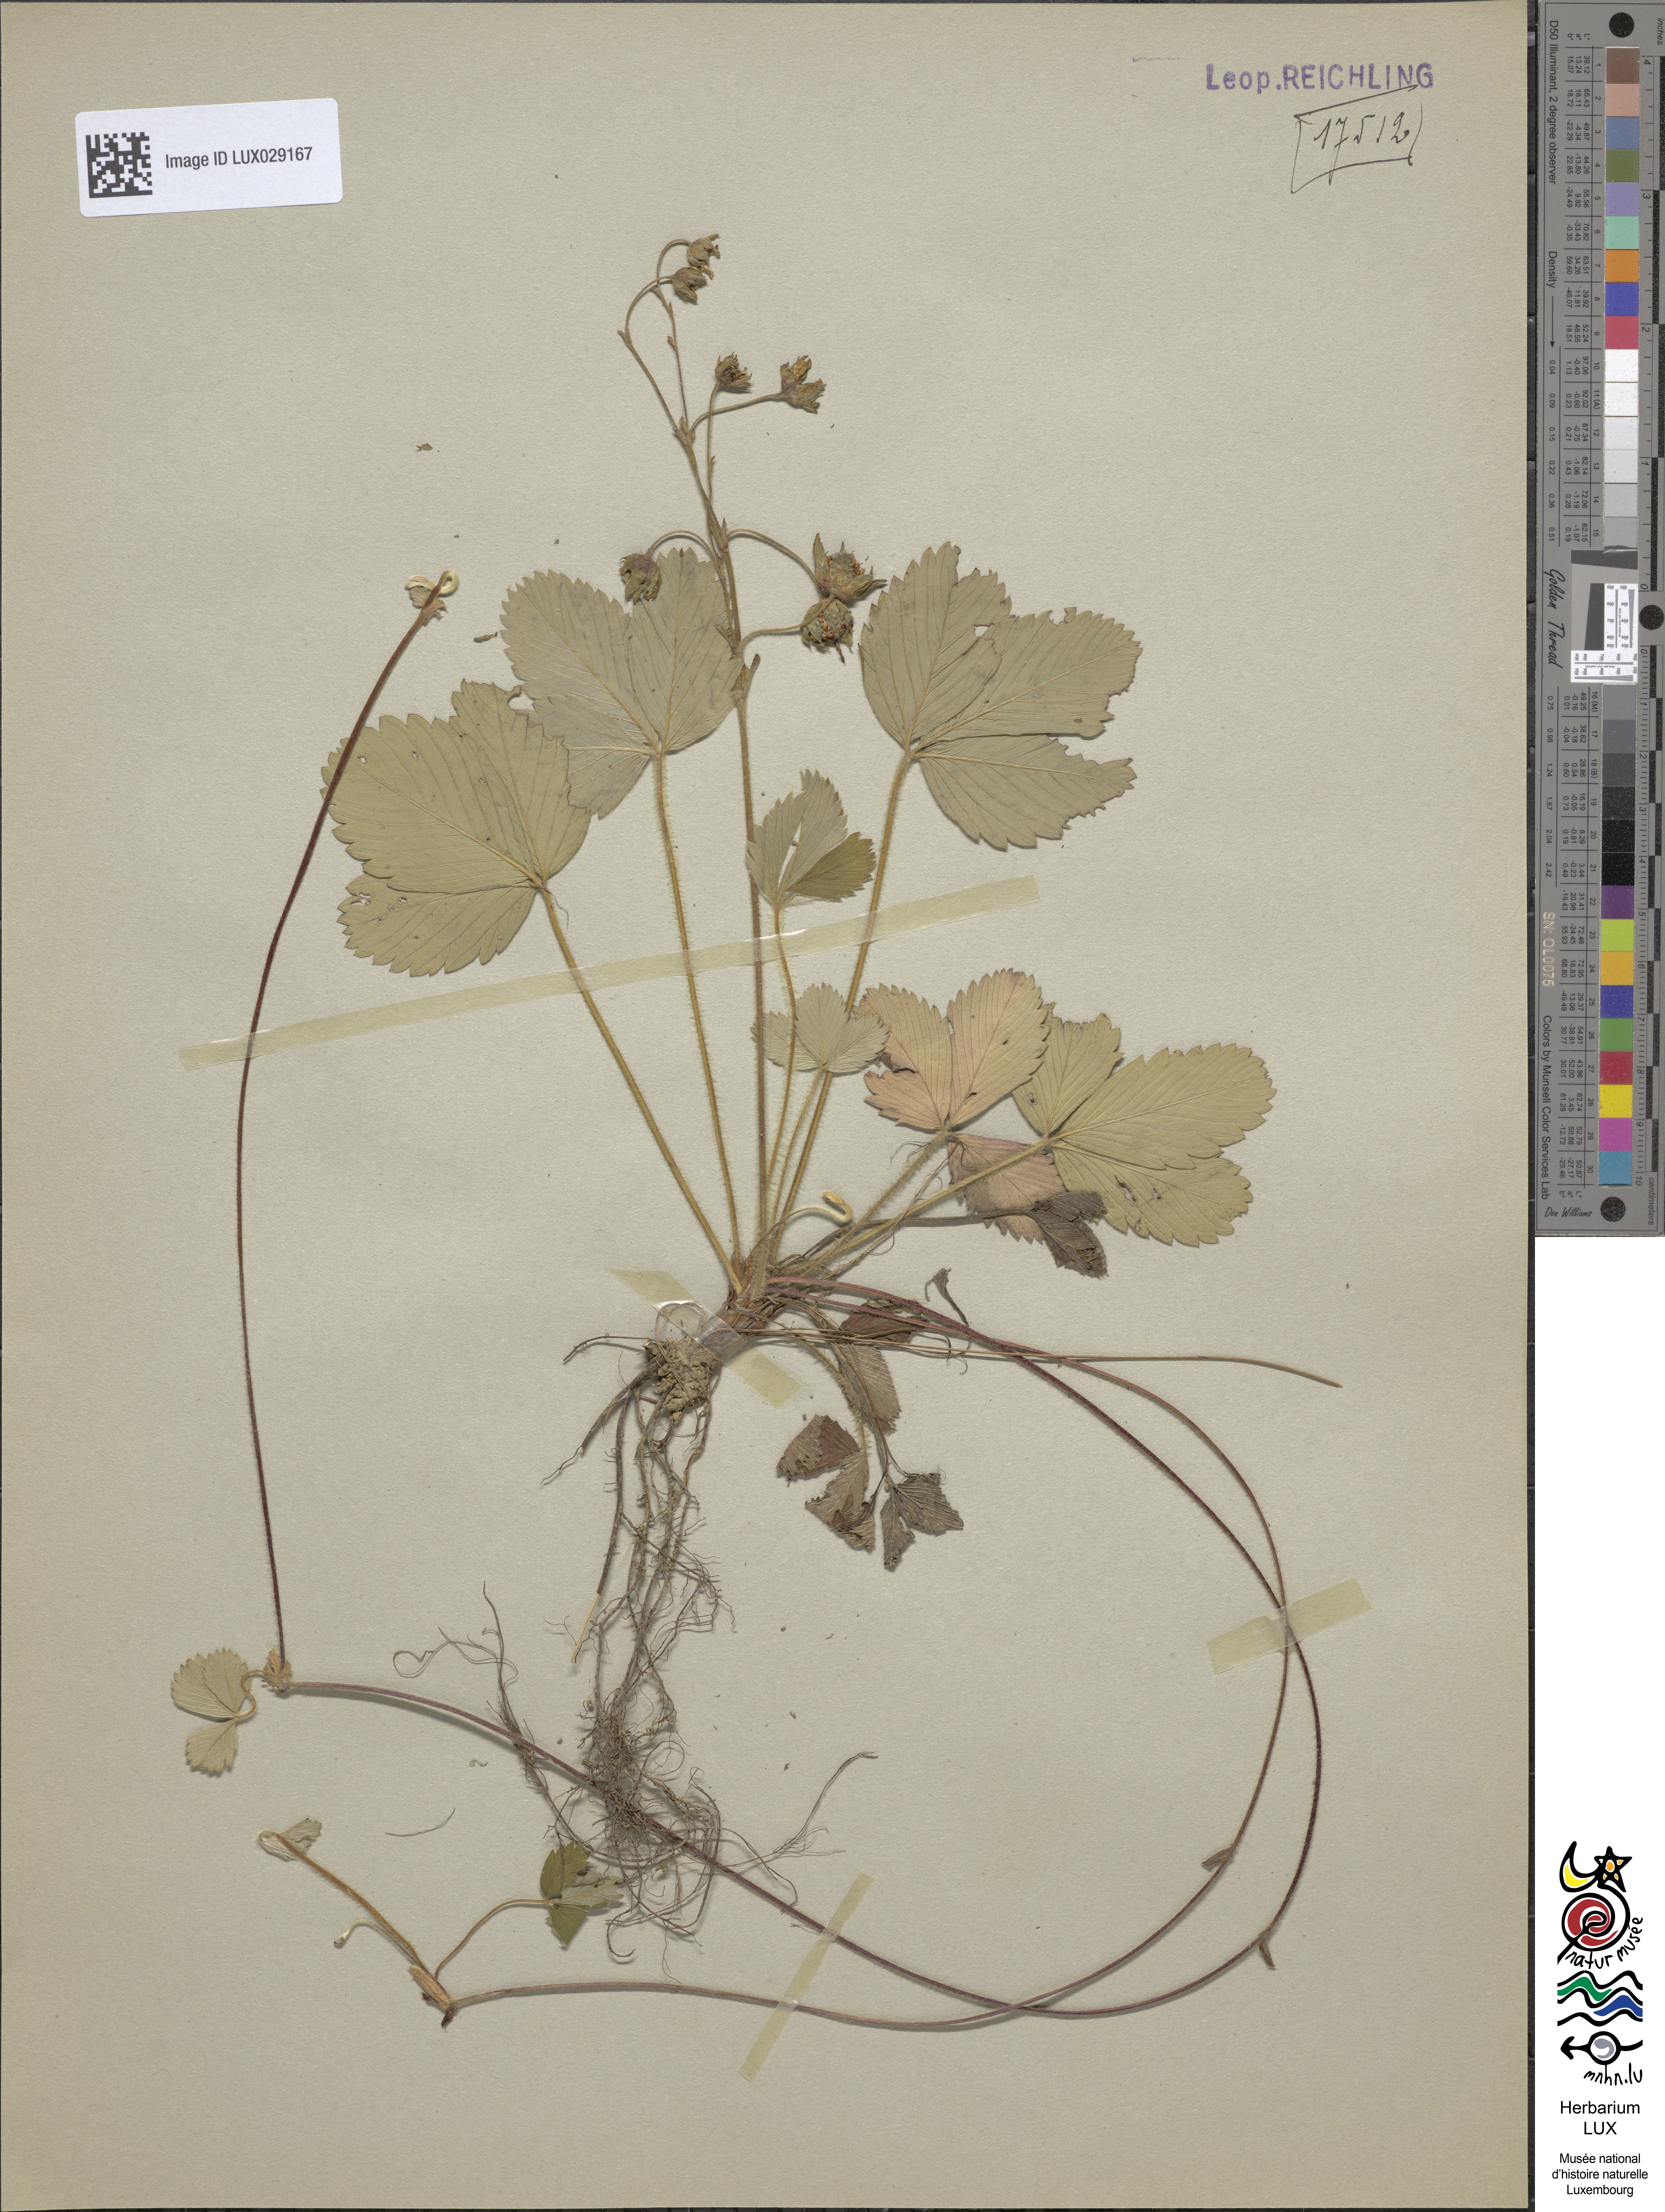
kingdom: Plantae
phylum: Tracheophyta
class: Magnoliopsida
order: Rosales
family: Rosaceae
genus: Fragaria
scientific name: Fragaria viridis
